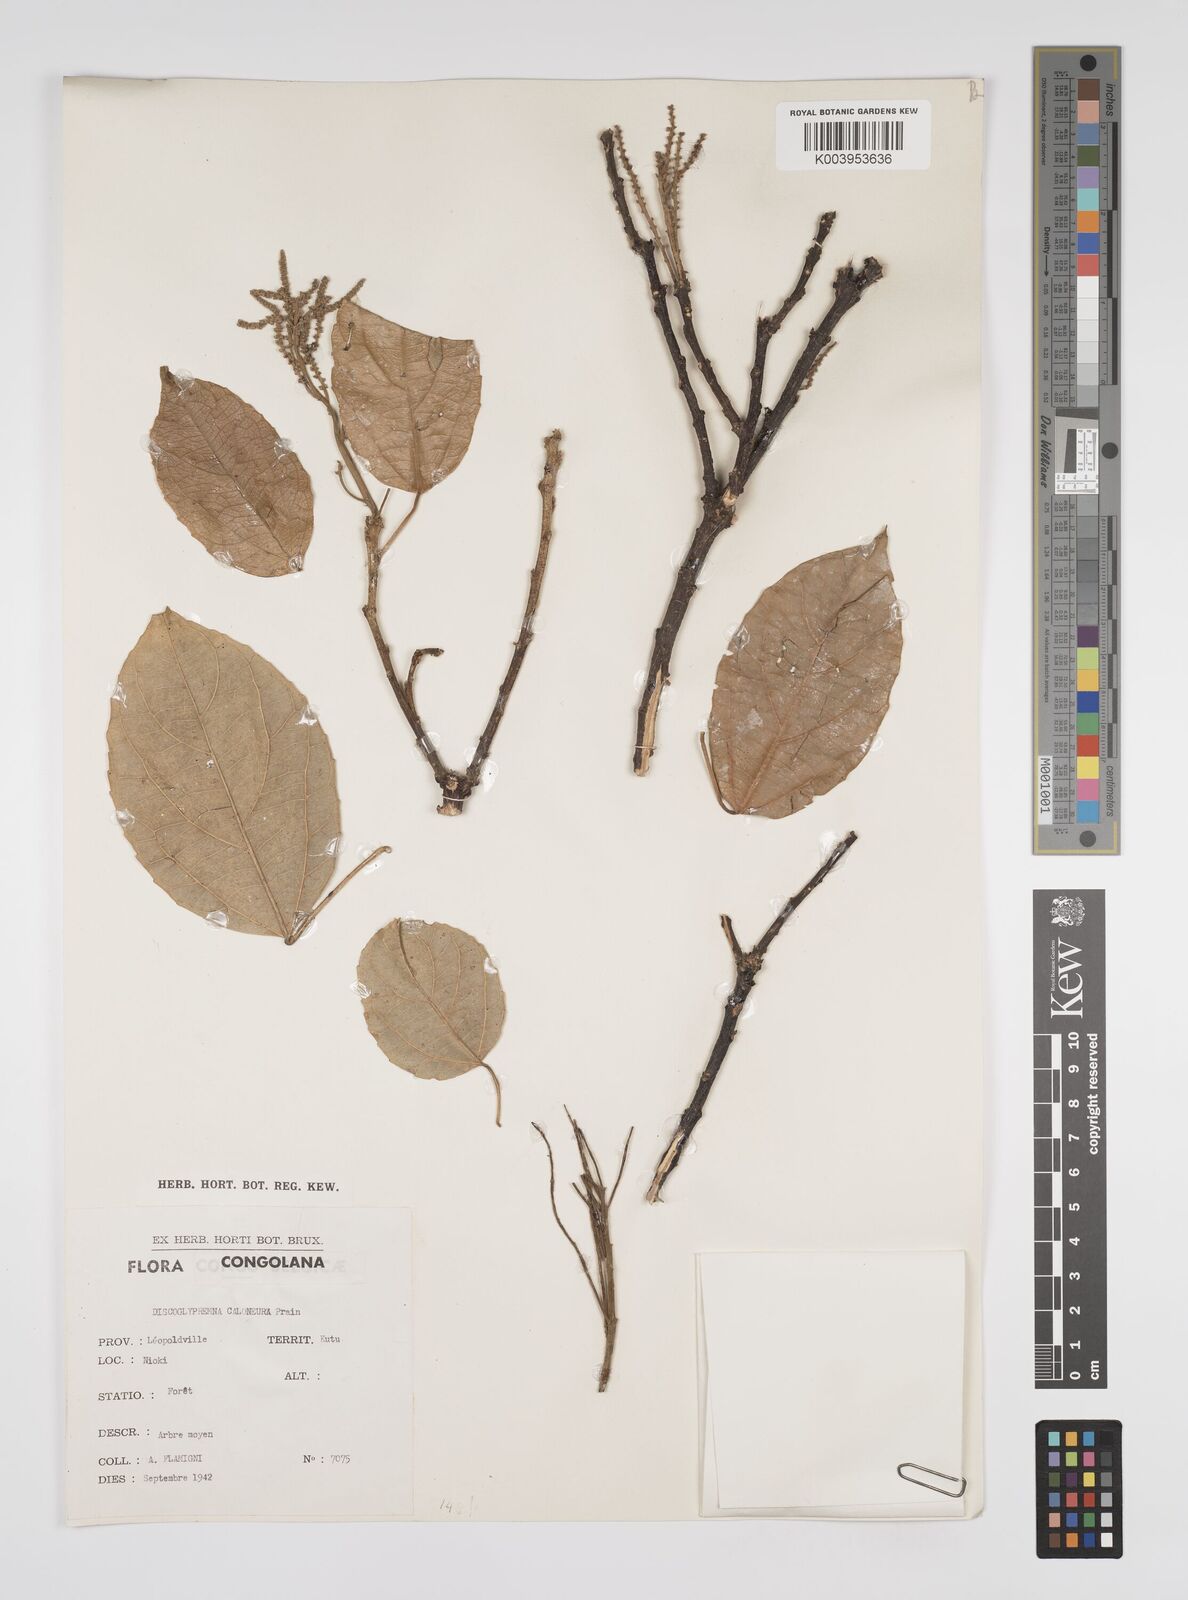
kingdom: Plantae
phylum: Tracheophyta
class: Magnoliopsida
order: Malpighiales
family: Euphorbiaceae
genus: Discoglypremna
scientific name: Discoglypremna caloneura
